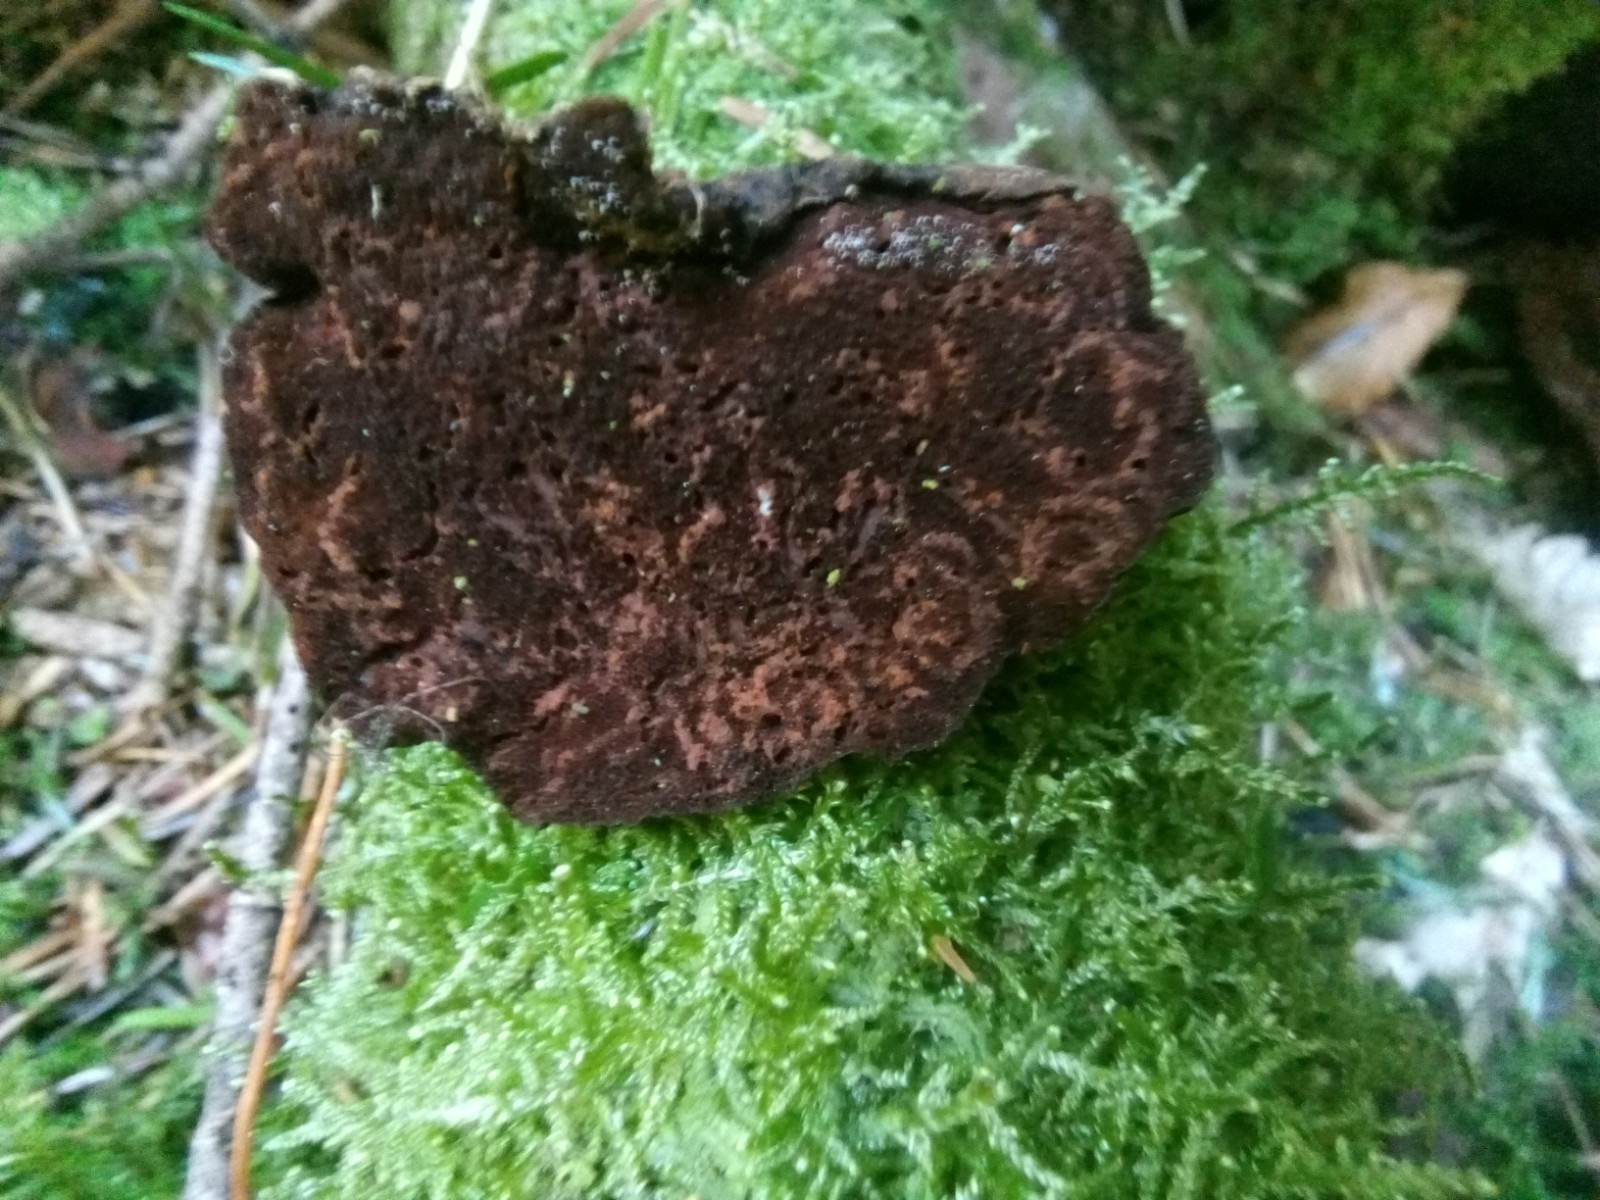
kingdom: Fungi
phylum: Basidiomycota
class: Agaricomycetes
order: Polyporales
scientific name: Polyporales
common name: poresvampordenen
